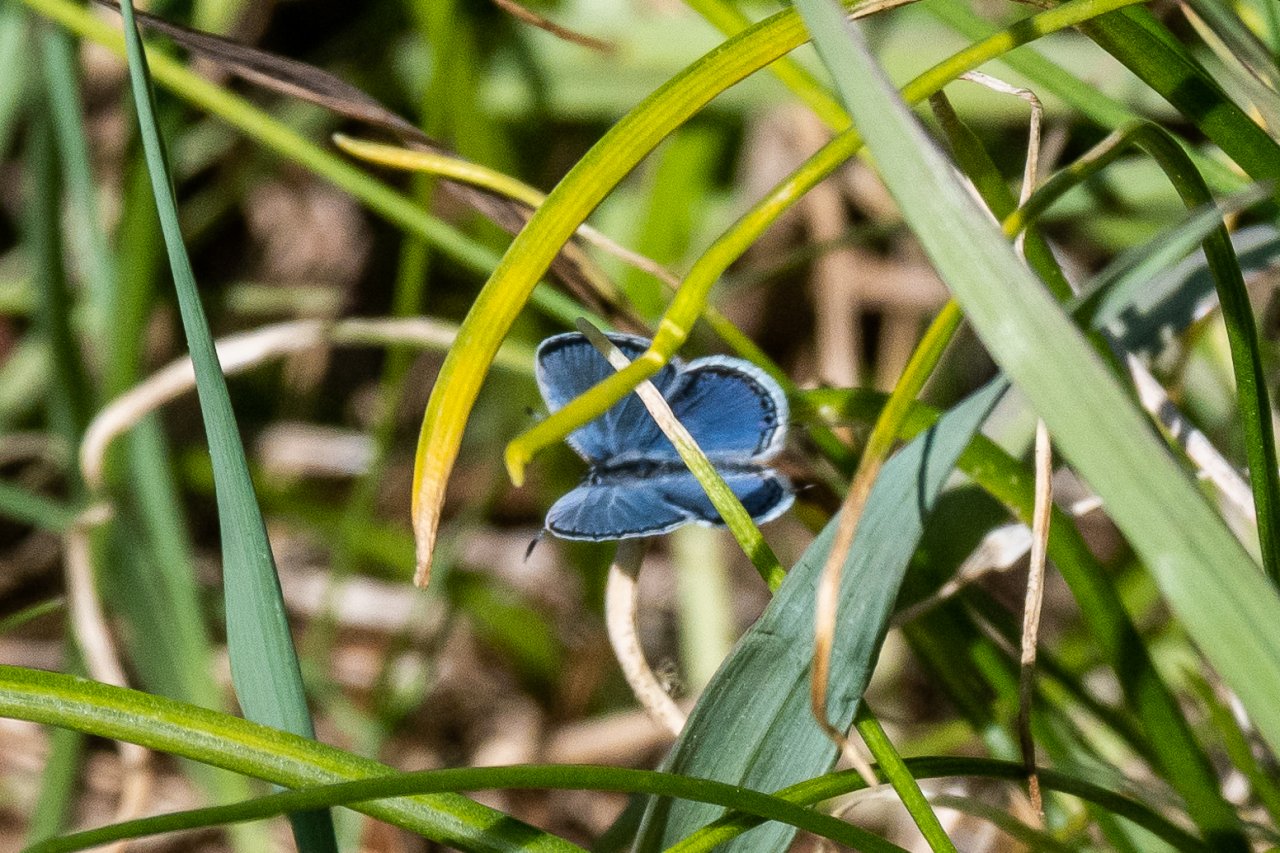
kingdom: Animalia
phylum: Arthropoda
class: Insecta
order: Lepidoptera
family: Lycaenidae
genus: Elkalyce
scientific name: Elkalyce comyntas
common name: Eastern Tailed-Blue
